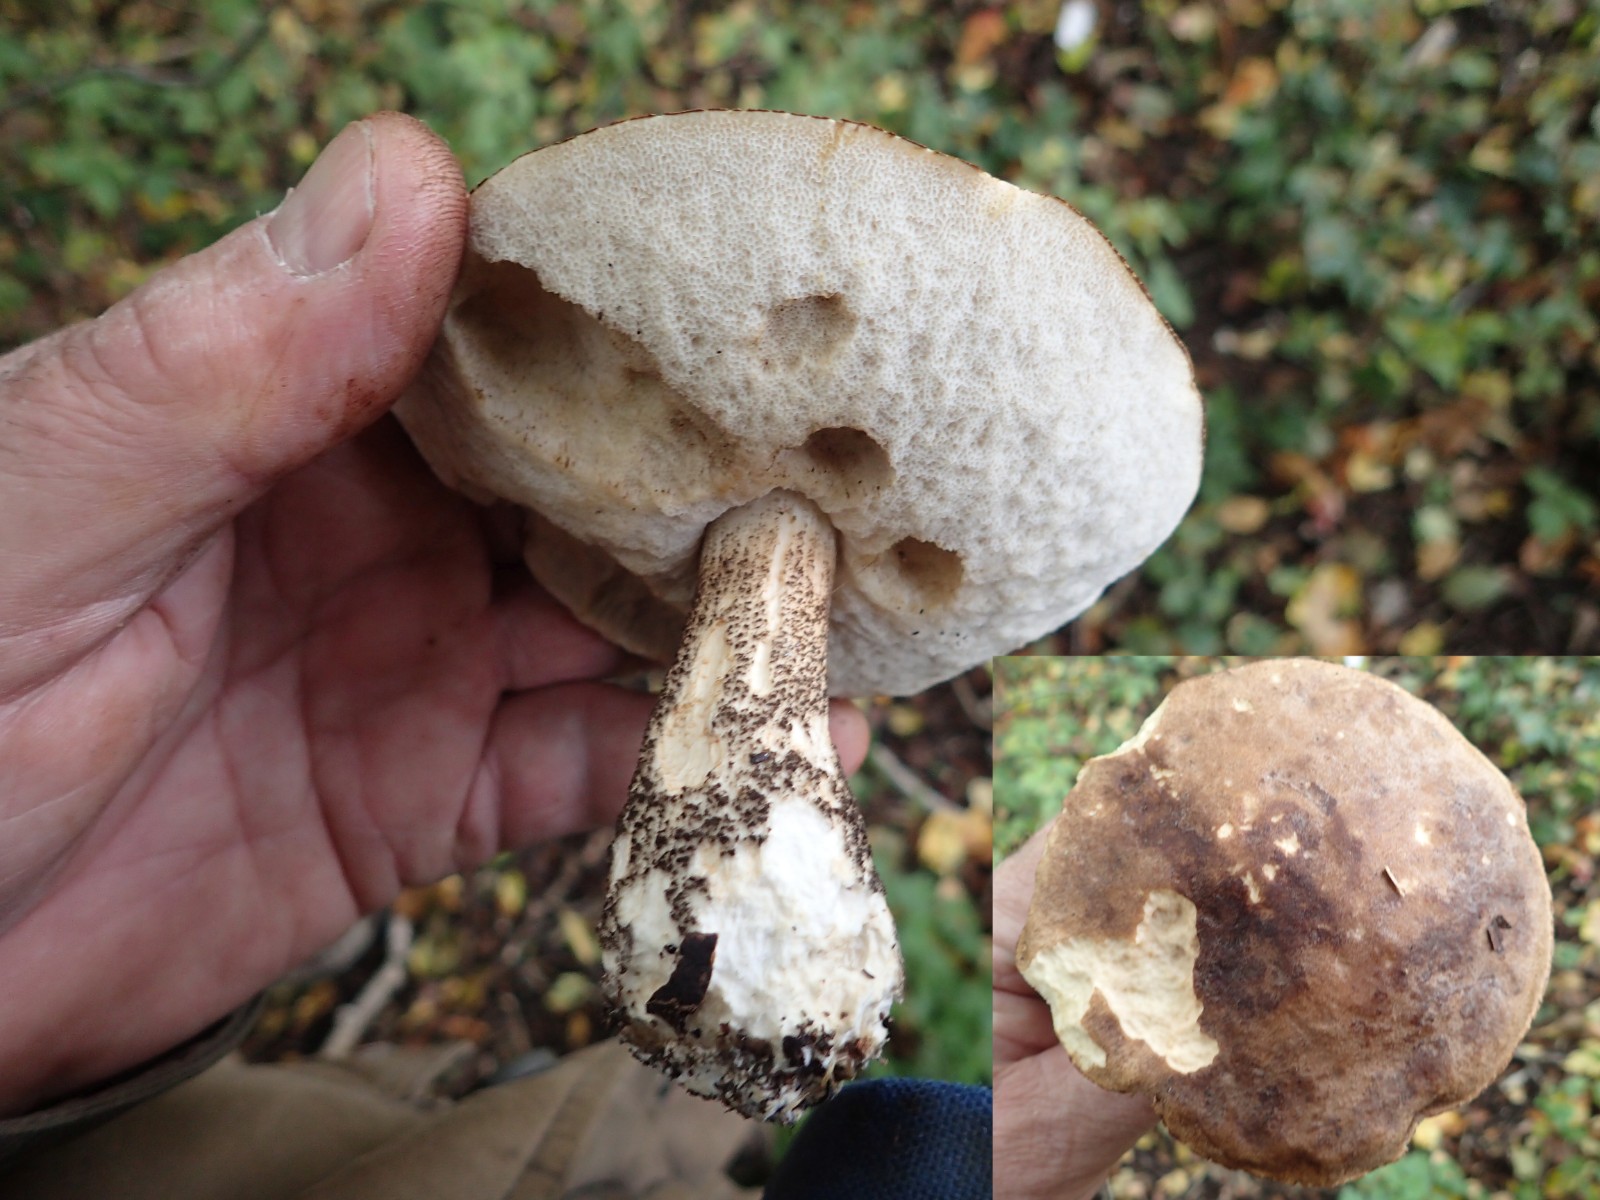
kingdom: Fungi
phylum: Basidiomycota
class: Agaricomycetes
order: Boletales
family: Boletaceae
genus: Leccinum
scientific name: Leccinum scabrum
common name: brun skælrørhat
